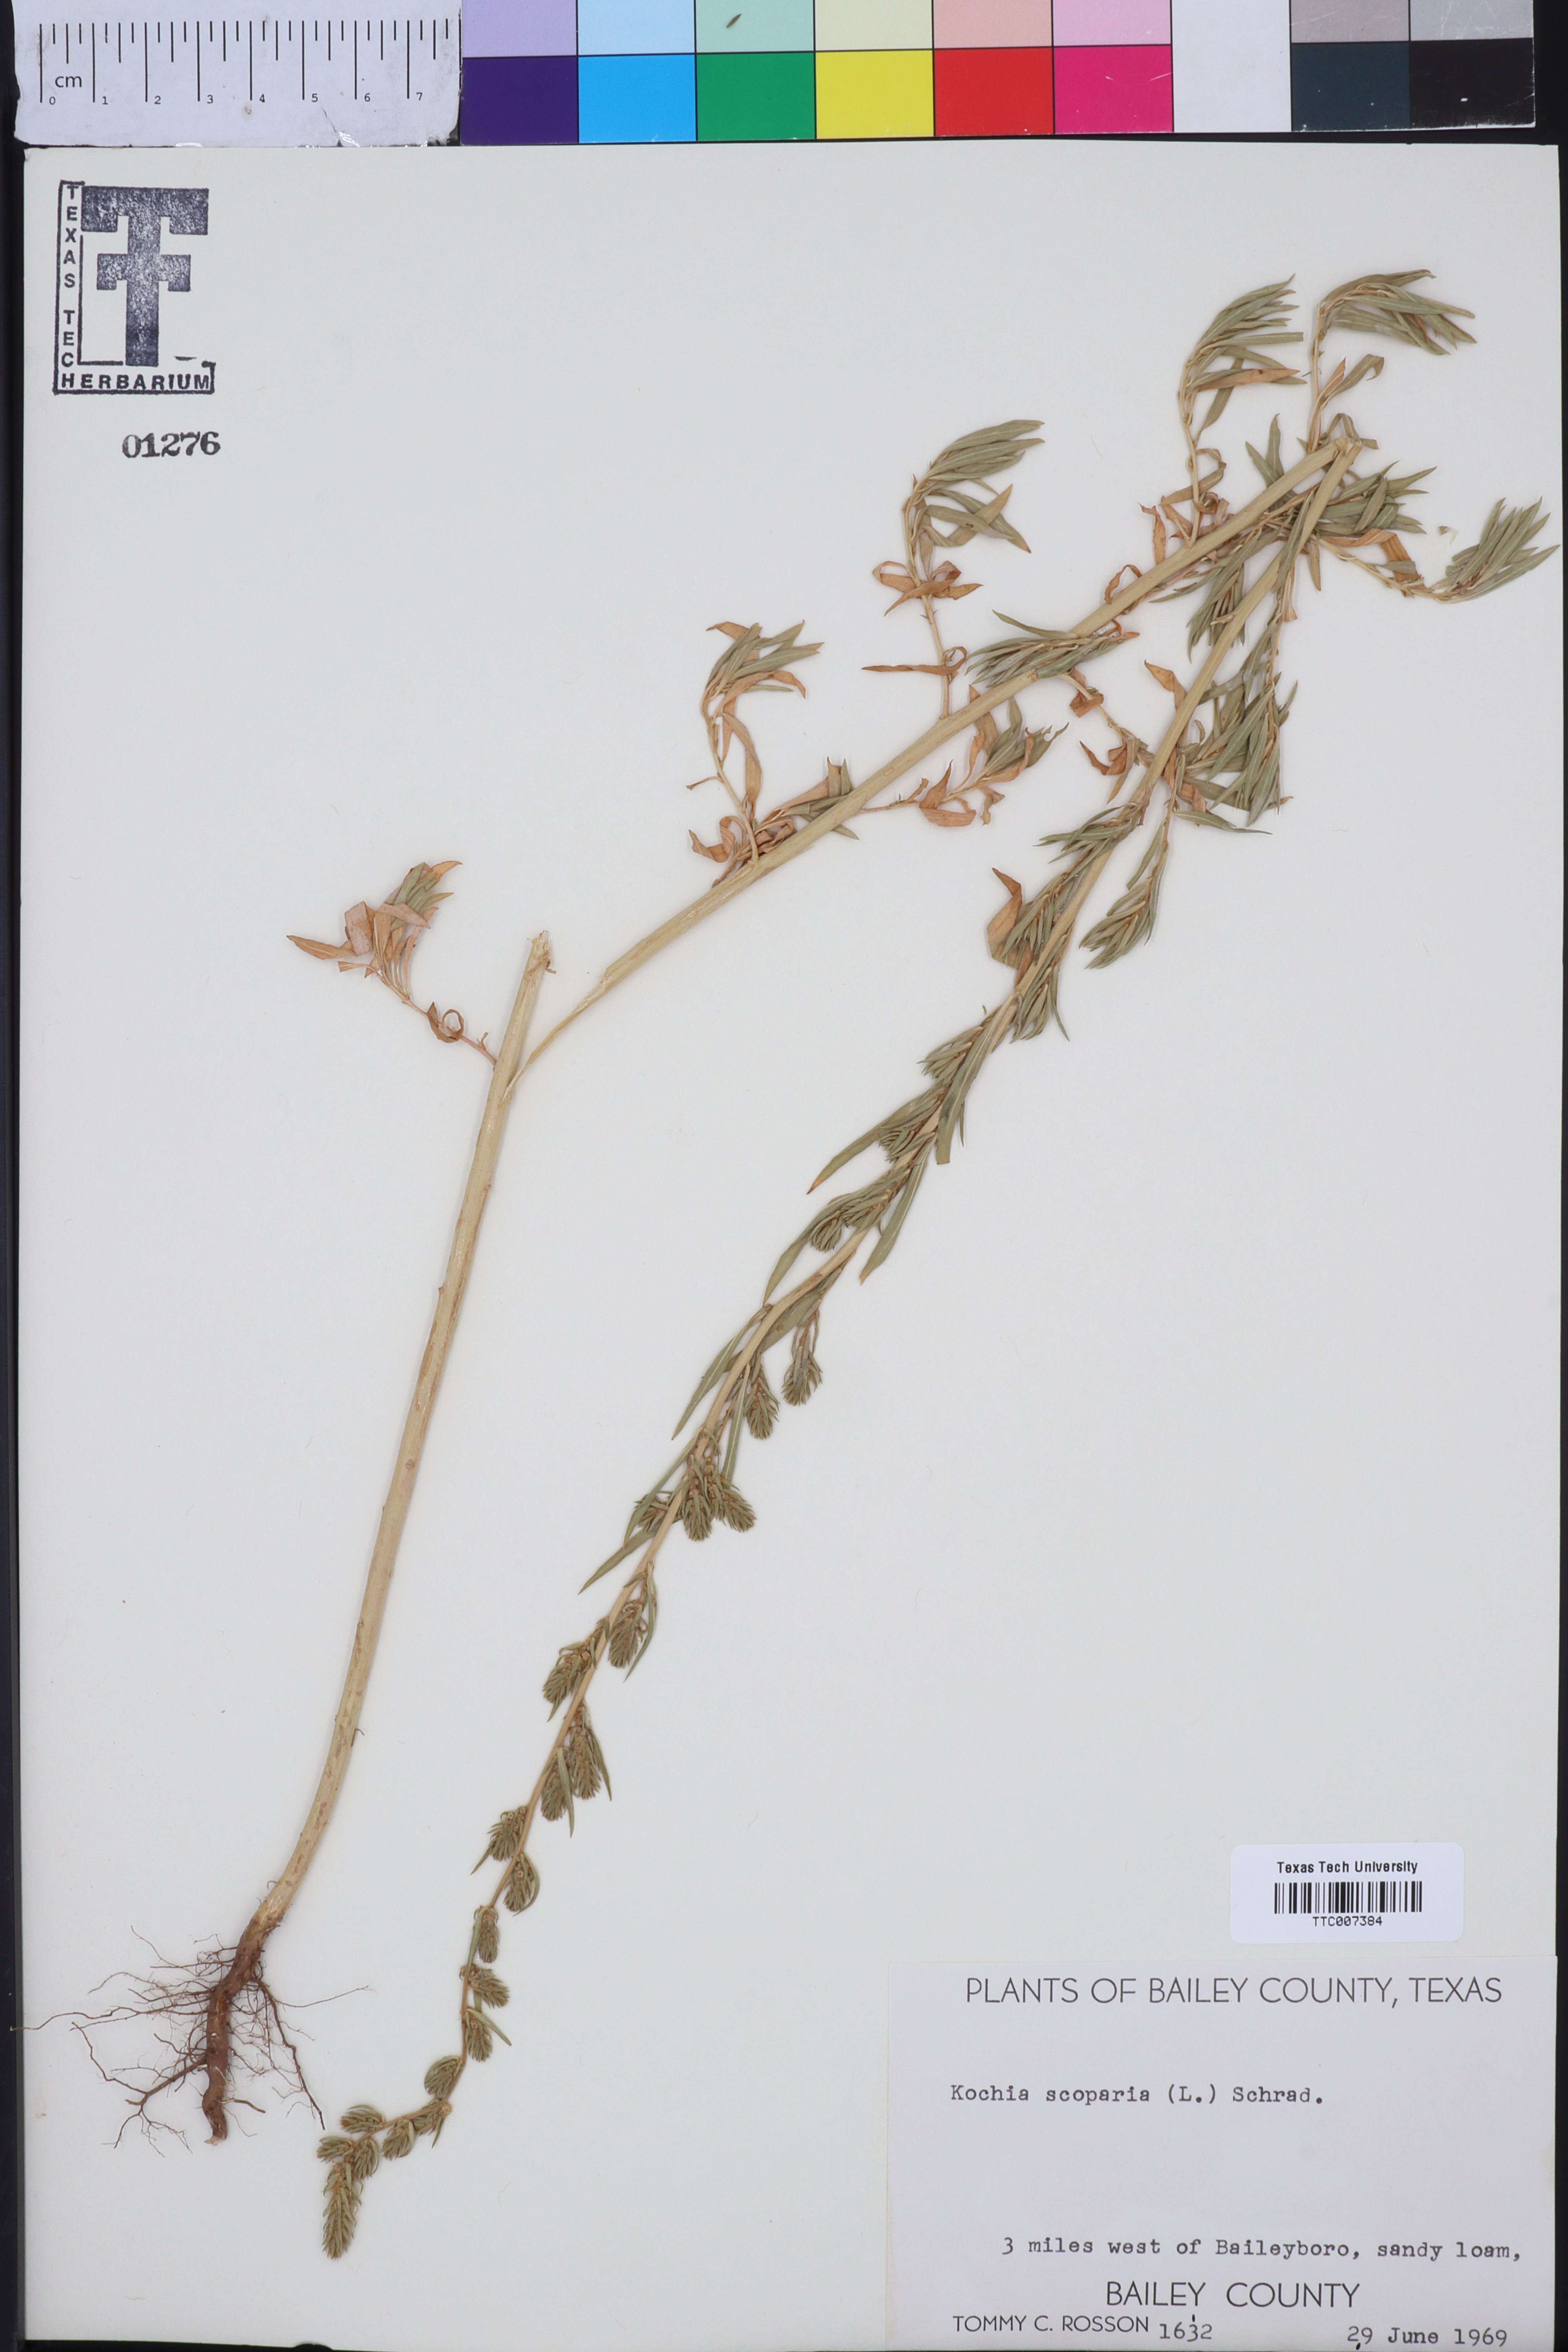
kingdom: Plantae
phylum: Tracheophyta
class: Magnoliopsida
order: Caryophyllales
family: Amaranthaceae
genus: Bassia
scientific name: Bassia scoparia
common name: Belvedere
